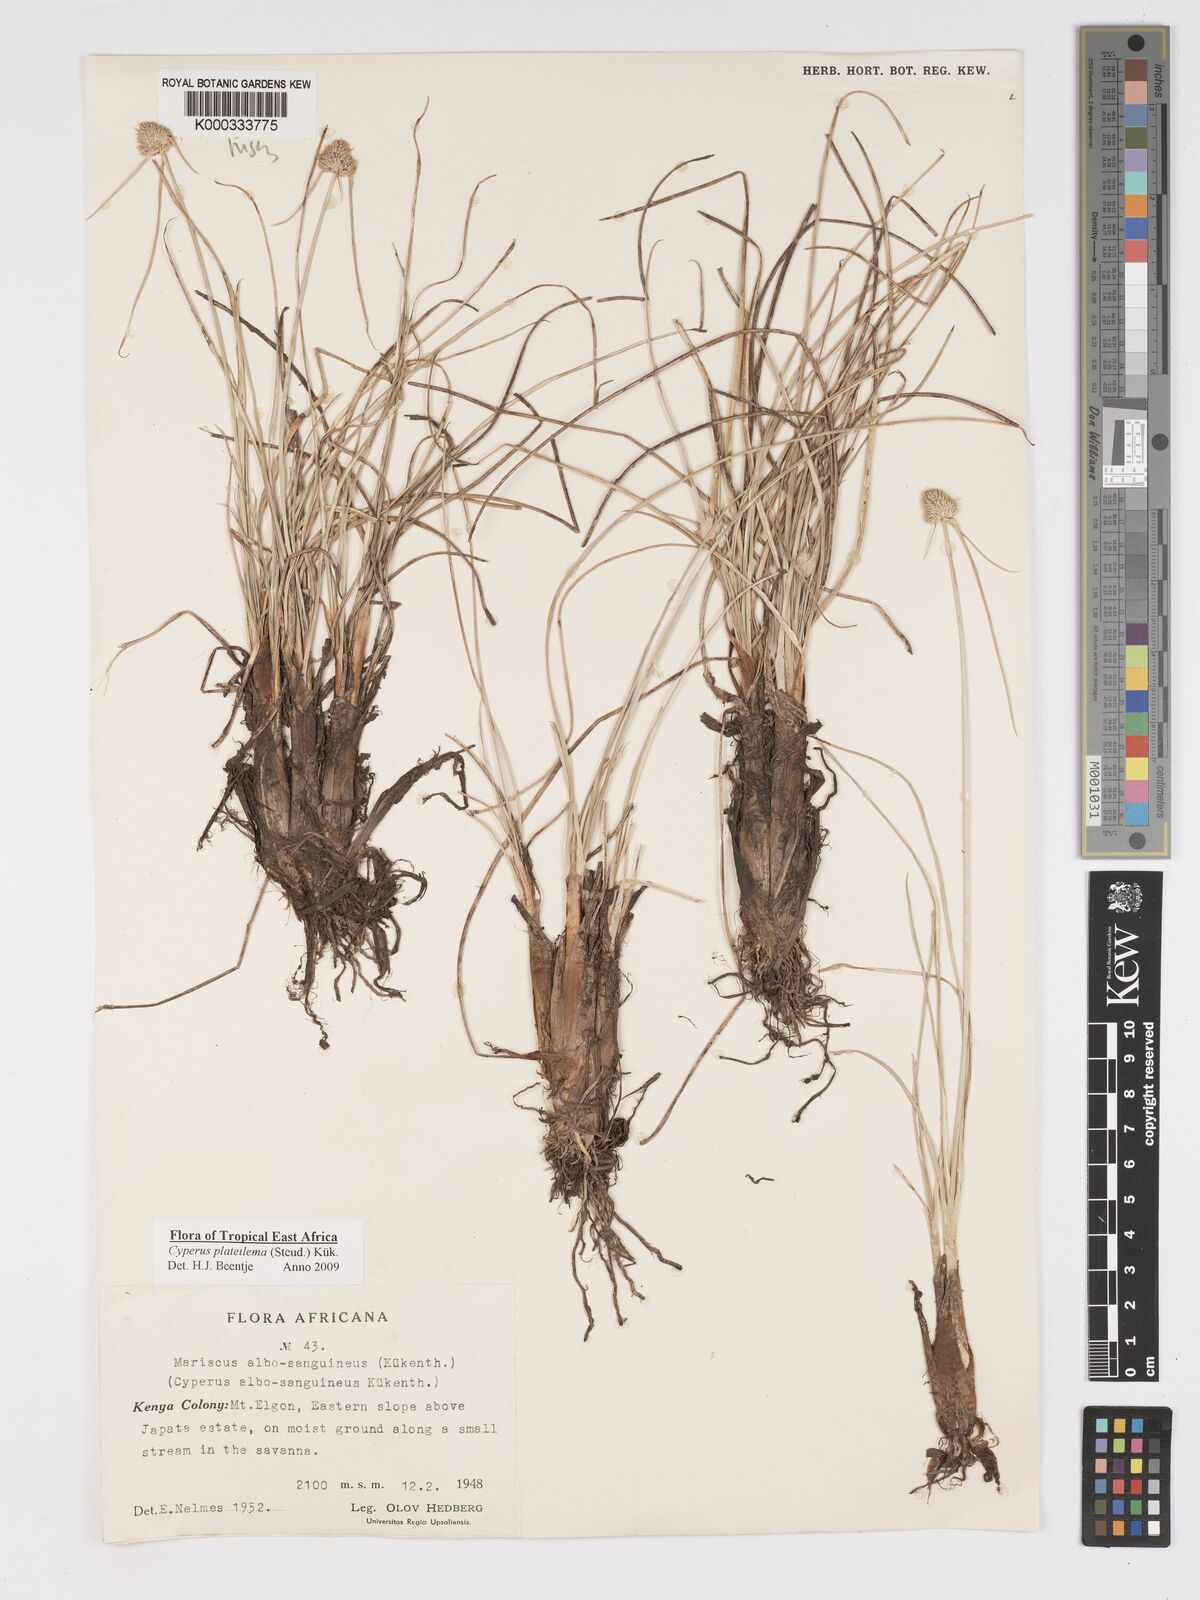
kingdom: Plantae
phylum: Tracheophyta
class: Liliopsida
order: Poales
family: Cyperaceae
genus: Cyperus
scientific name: Cyperus
